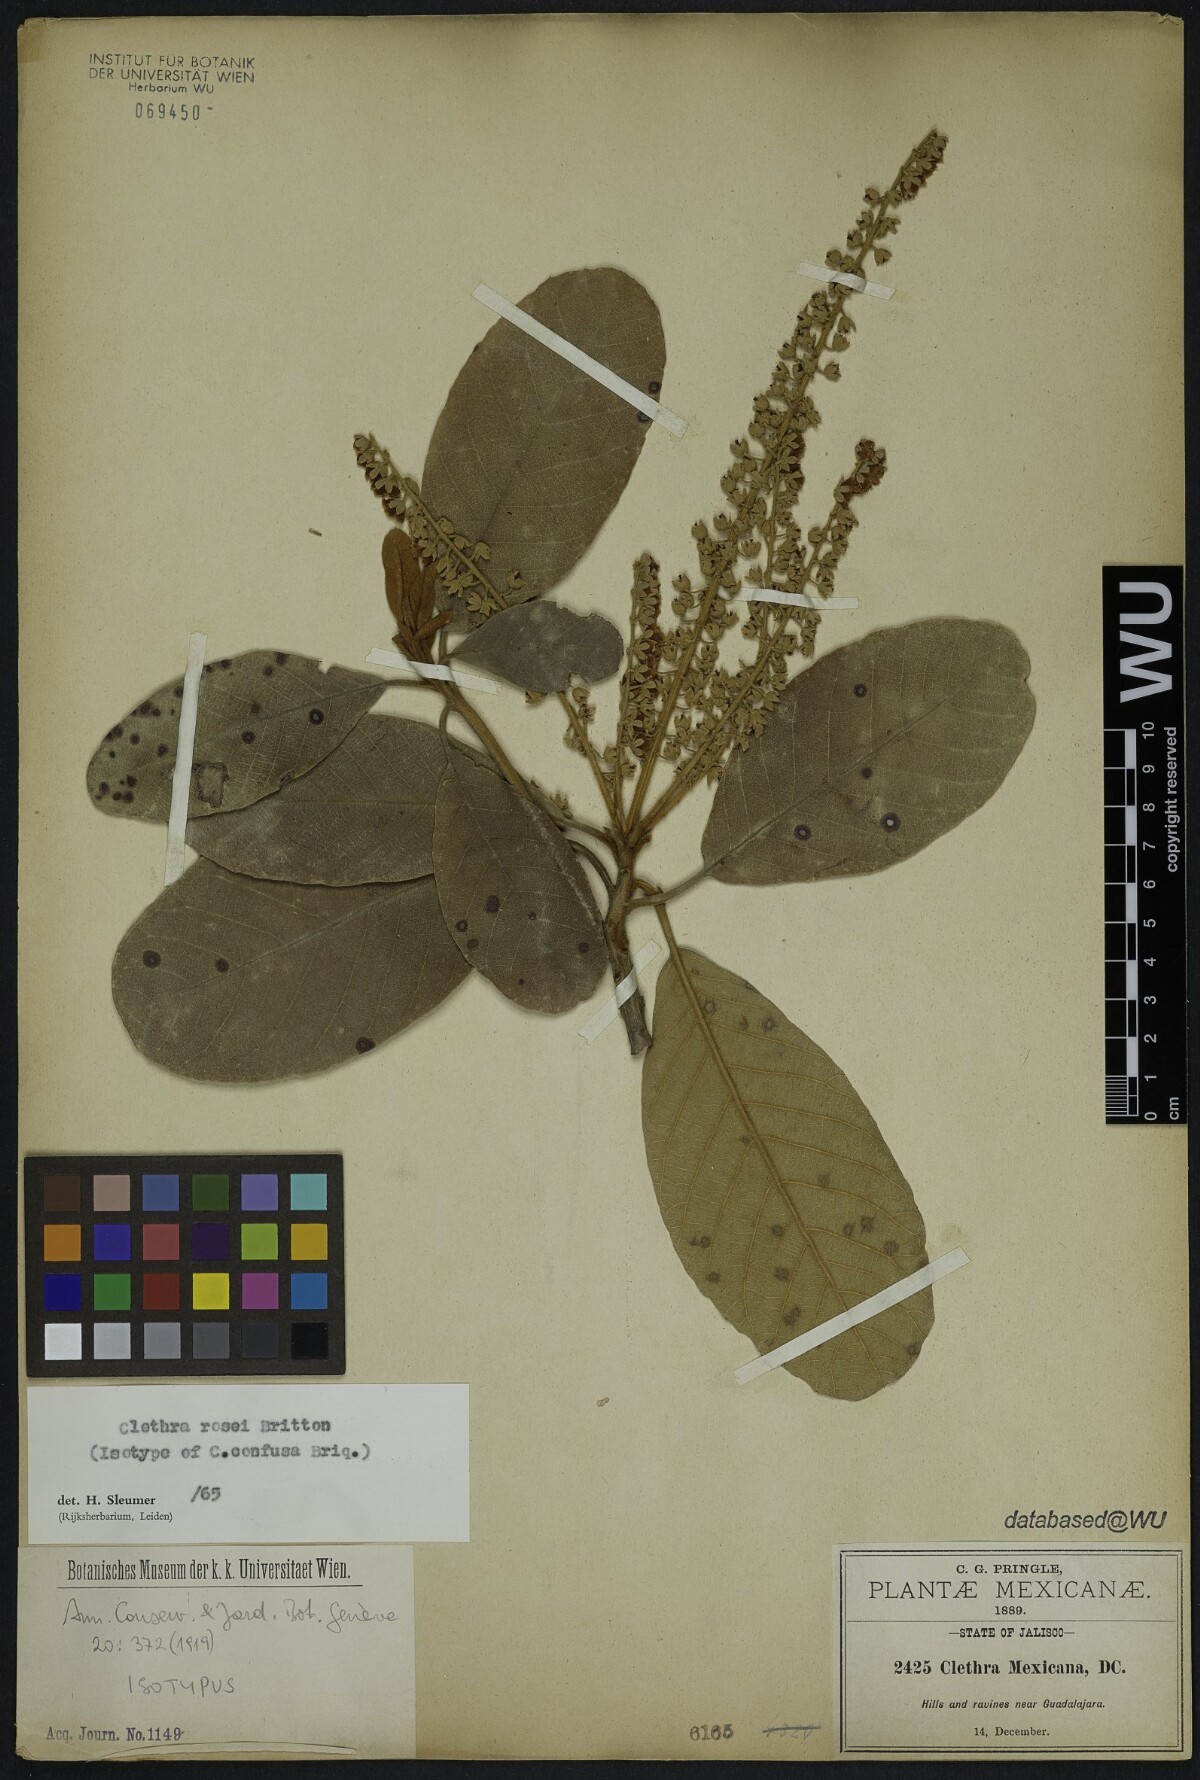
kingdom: Plantae
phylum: Tracheophyta
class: Magnoliopsida
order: Ericales
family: Clethraceae
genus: Clethra
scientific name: Clethra rosei
